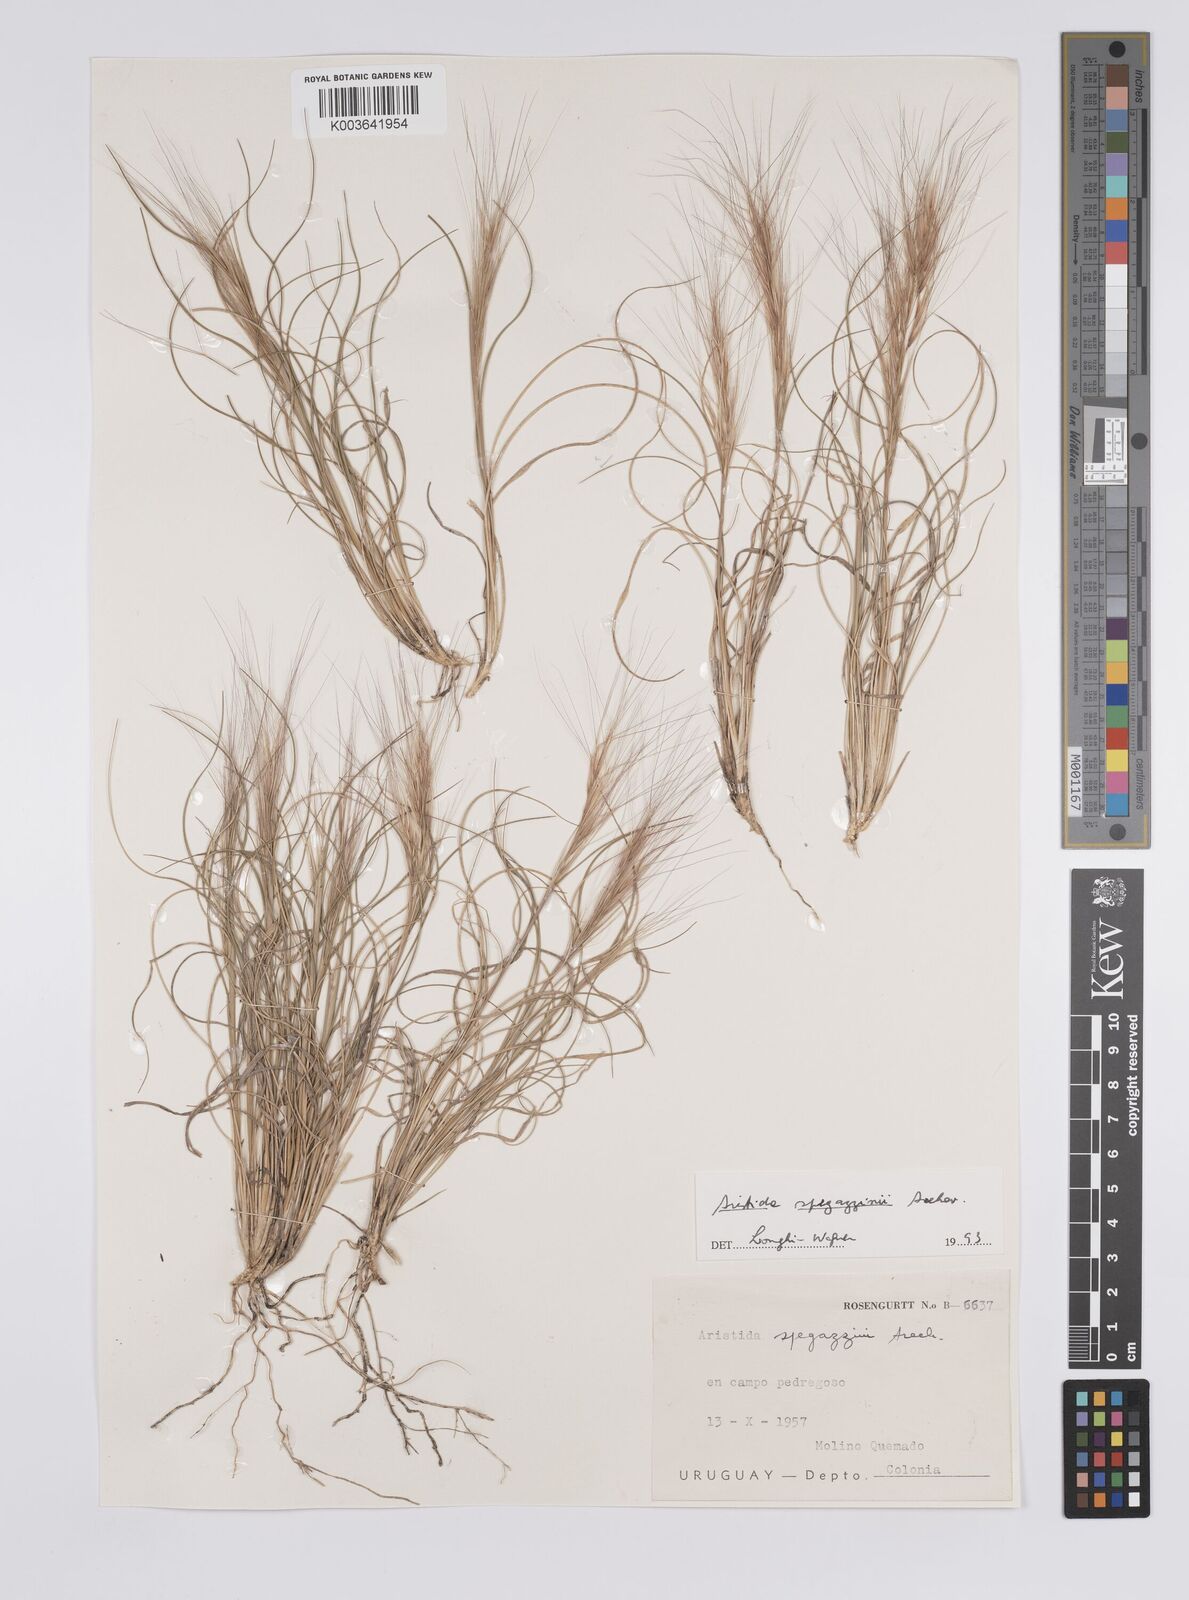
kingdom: Plantae
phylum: Tracheophyta
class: Liliopsida
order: Poales
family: Poaceae
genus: Aristida
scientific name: Aristida spegazzinii
